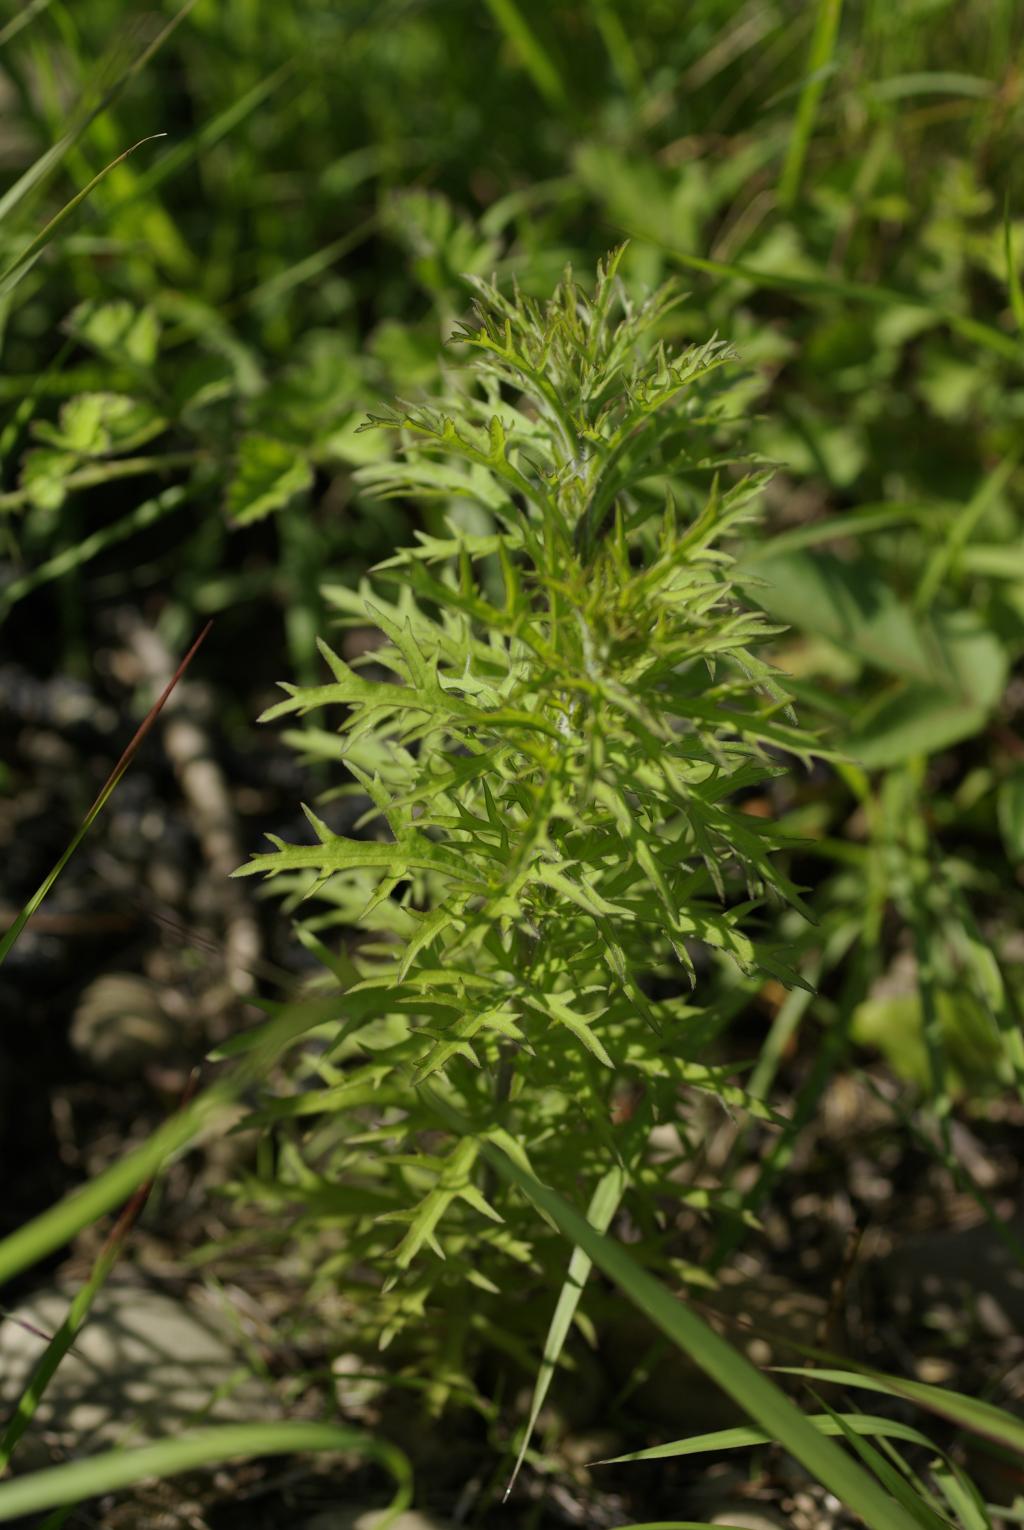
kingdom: Plantae
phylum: Tracheophyta
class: Magnoliopsida
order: Lamiales
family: Orobanchaceae
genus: Siphonostegia
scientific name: Siphonostegia chinensis
